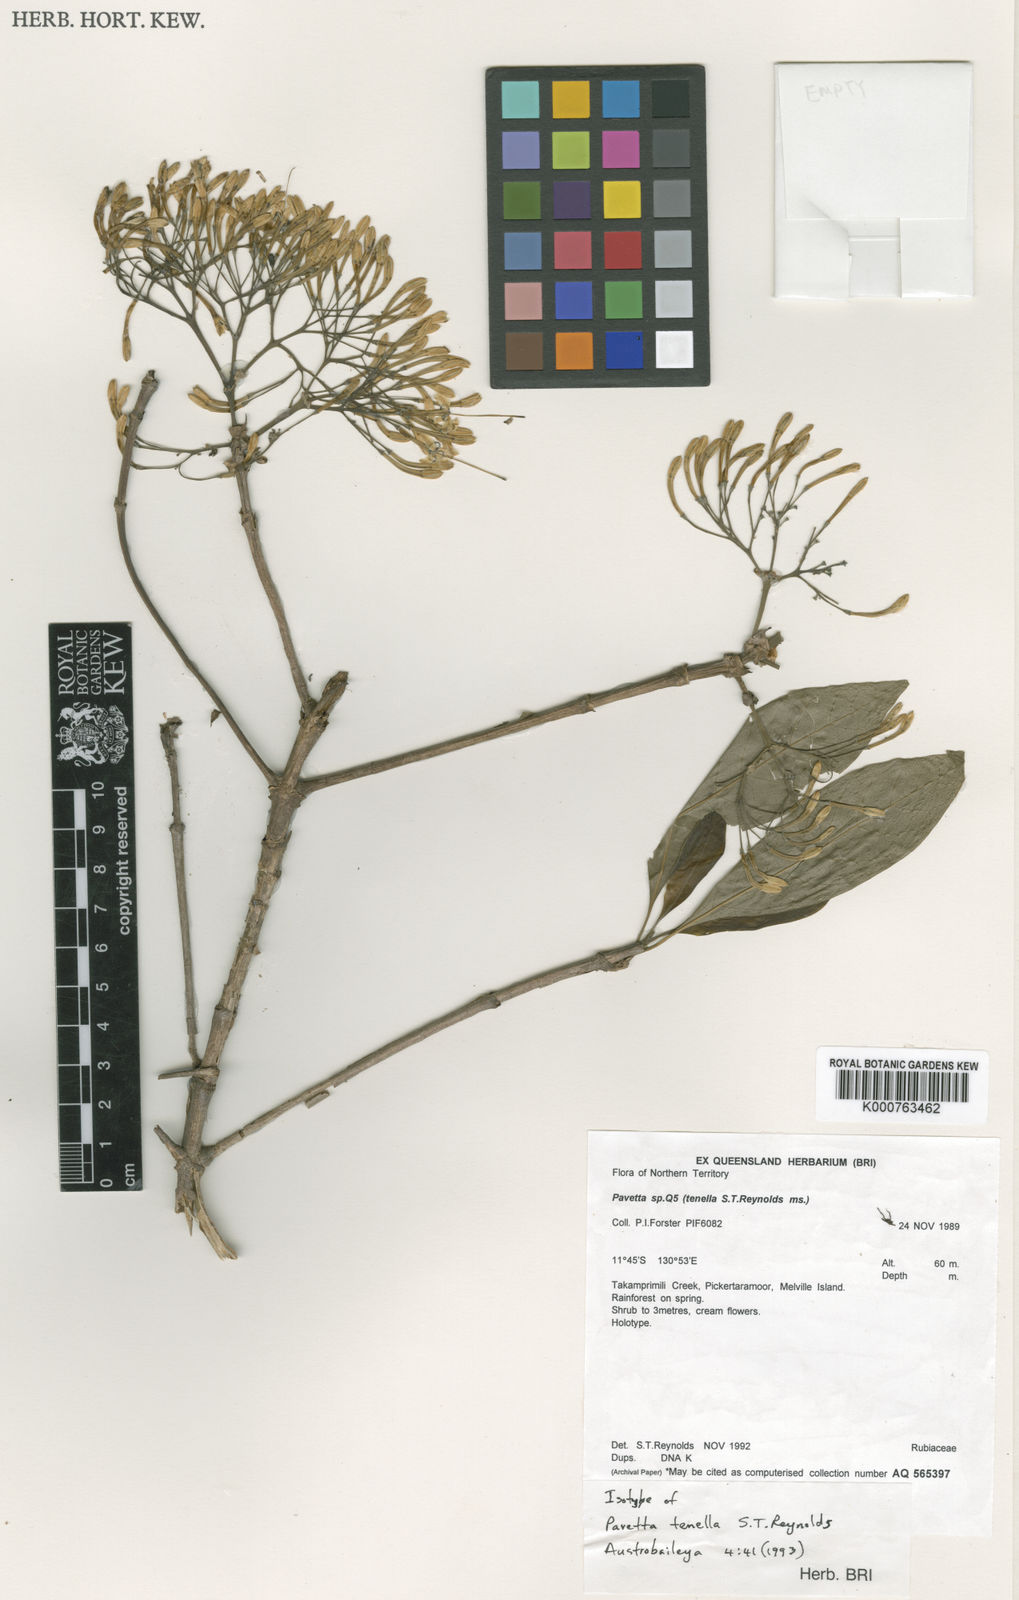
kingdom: Plantae
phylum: Tracheophyta
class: Magnoliopsida
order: Gentianales
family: Rubiaceae
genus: Pavetta
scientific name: Pavetta tenella
